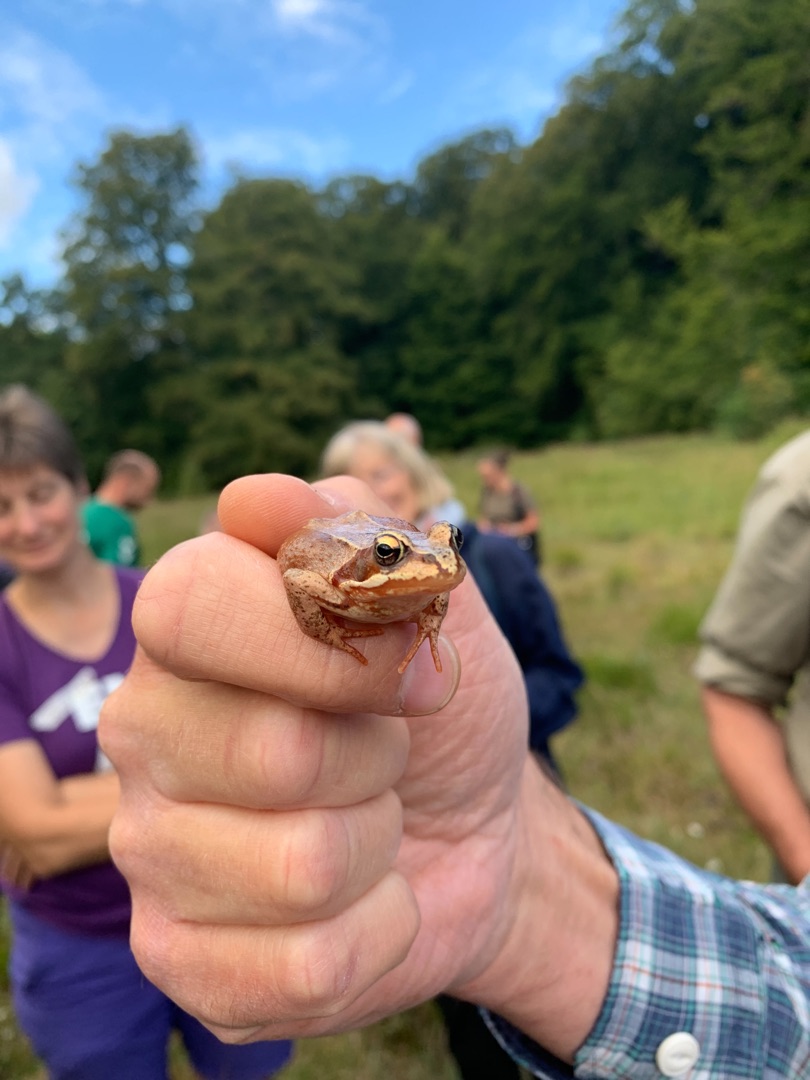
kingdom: Animalia
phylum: Chordata
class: Amphibia
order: Anura
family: Ranidae
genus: Rana
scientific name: Rana temporaria
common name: Butsnudet frø
